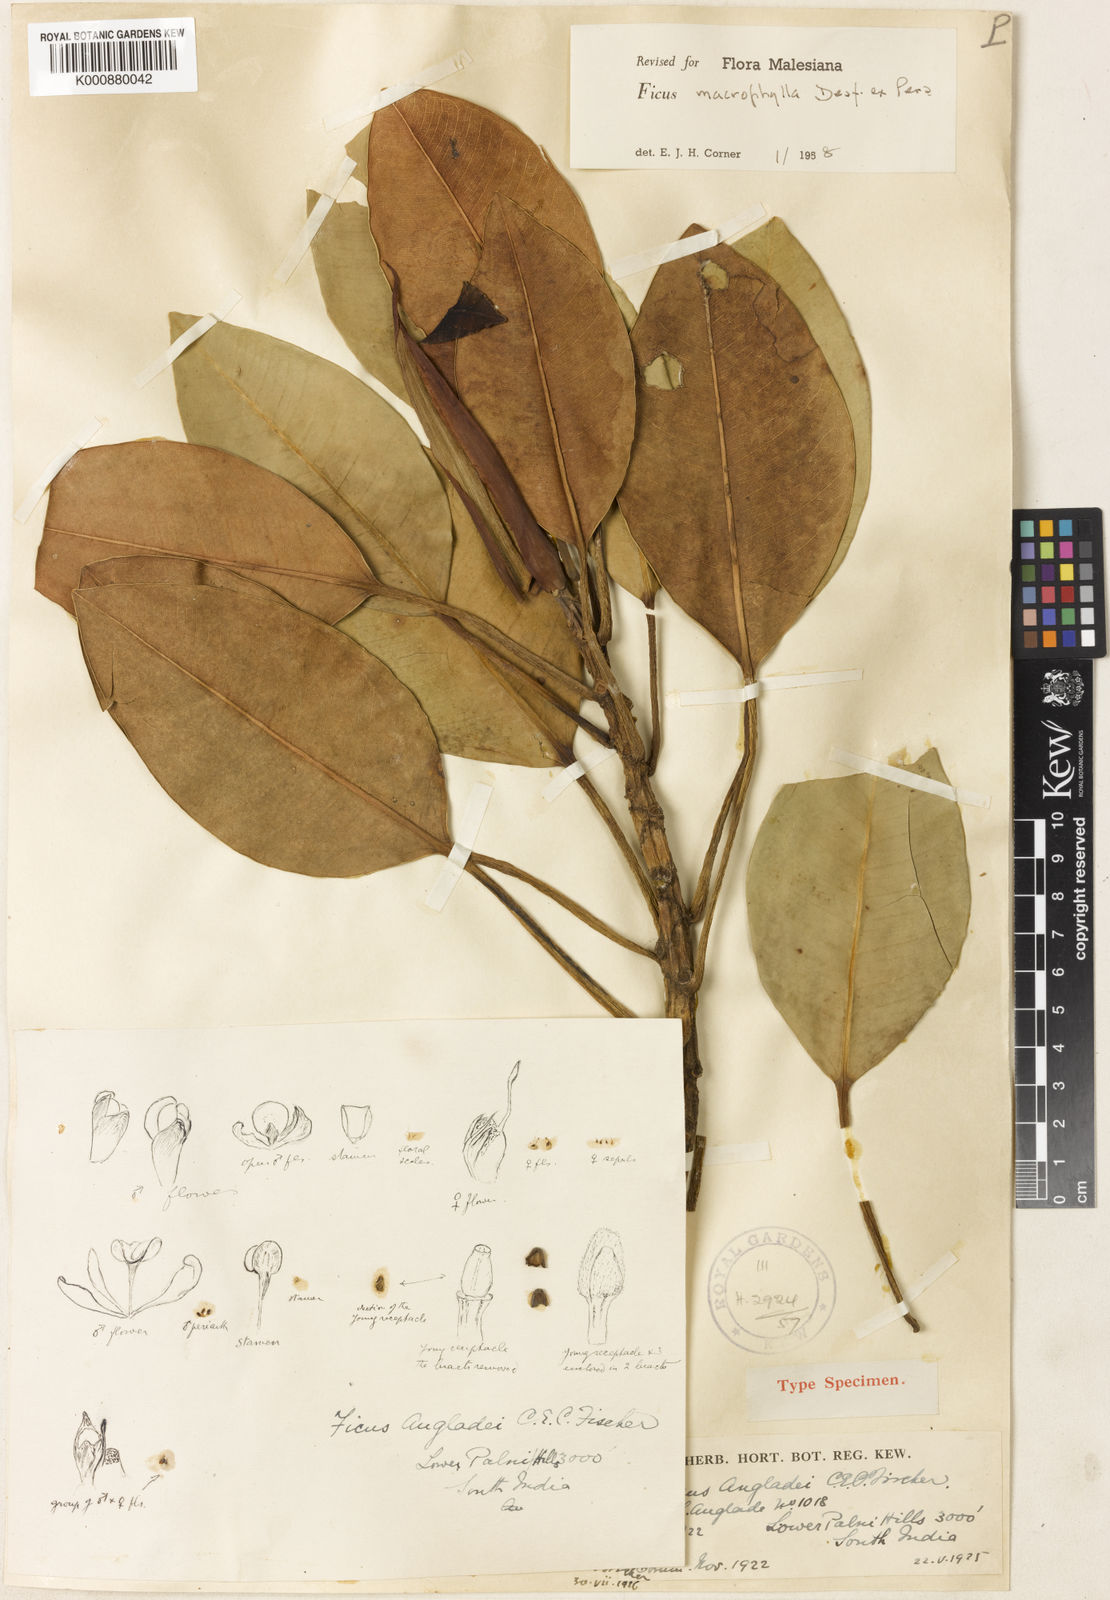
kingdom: Plantae
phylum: Tracheophyta
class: Magnoliopsida
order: Rosales
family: Moraceae
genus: Ficus
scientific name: Ficus macrophylla
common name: Moreton bay fig
